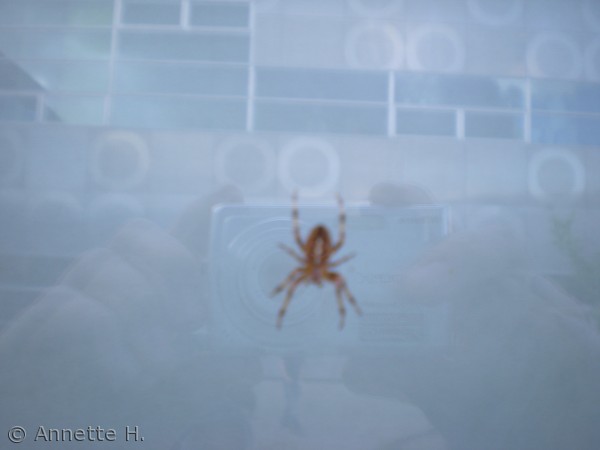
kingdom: Animalia
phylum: Arthropoda
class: Arachnida
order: Araneae
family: Araneidae
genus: Araneus
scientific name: Araneus diadematus
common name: Korsedderkop
